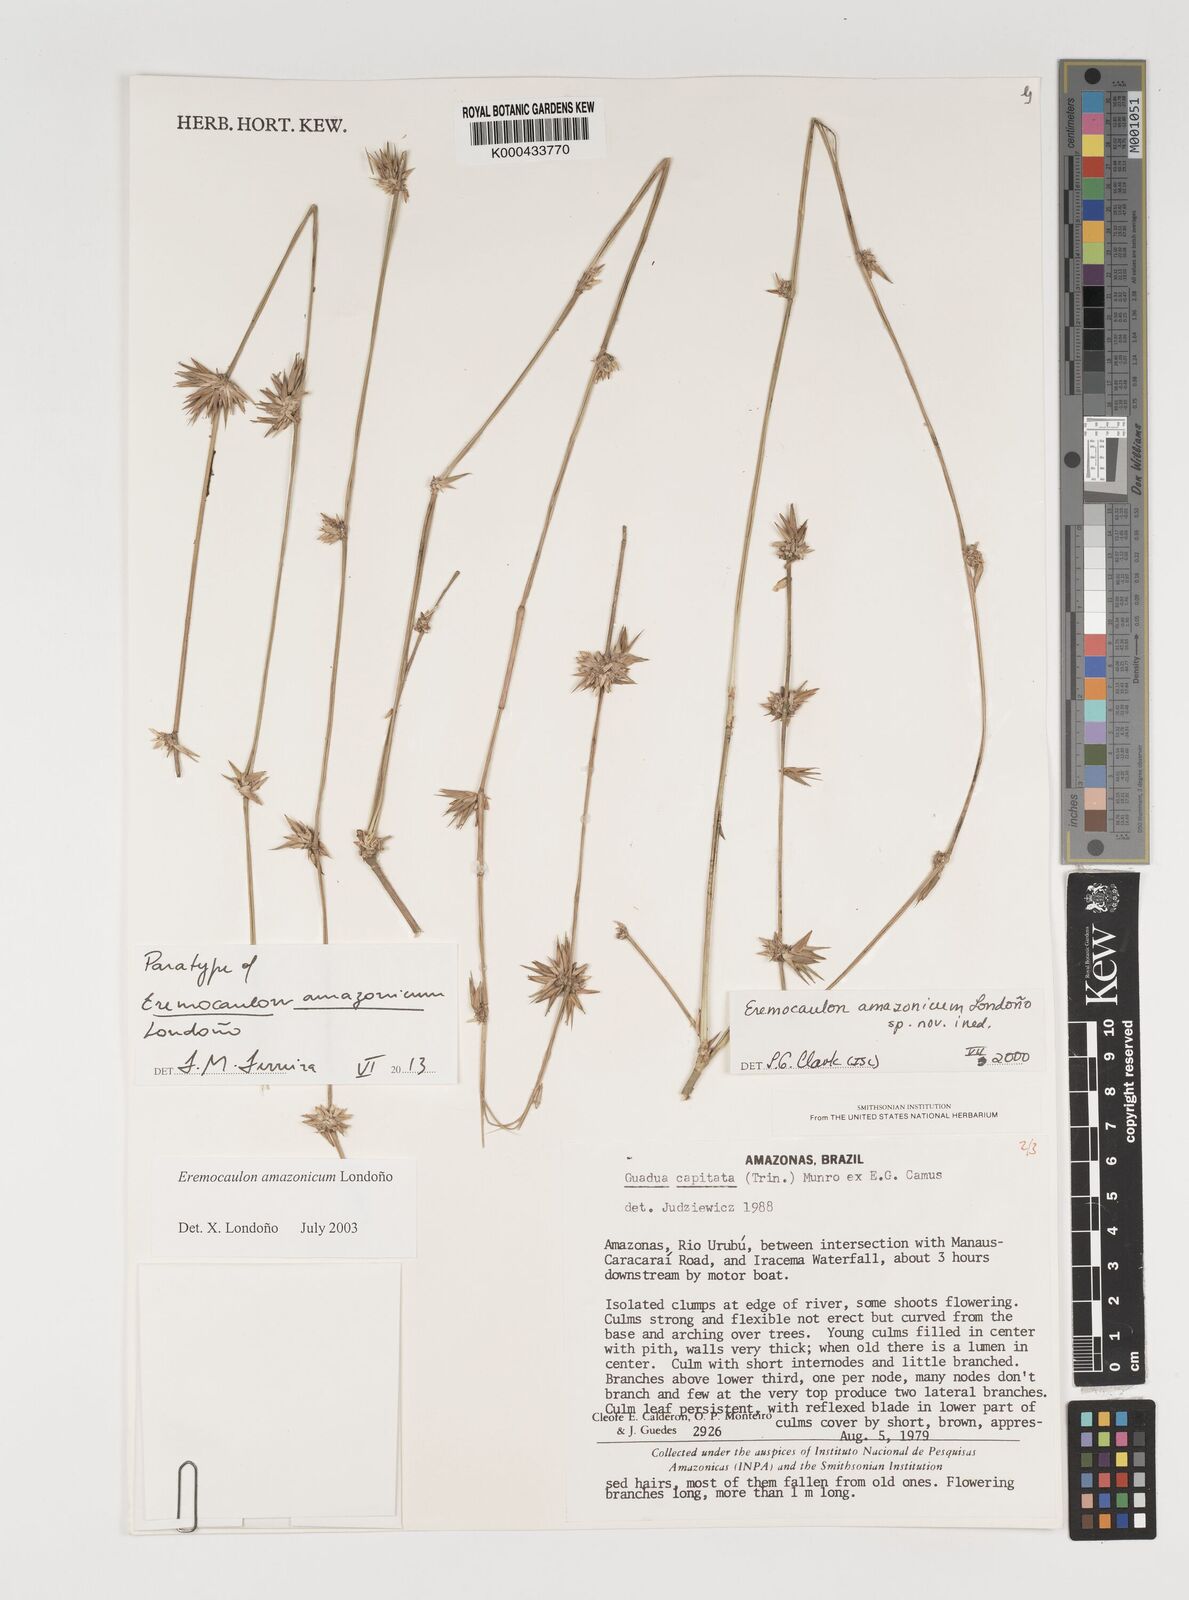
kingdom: Plantae
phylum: Tracheophyta
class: Liliopsida
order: Poales
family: Poaceae
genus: Eremocaulon
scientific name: Eremocaulon
